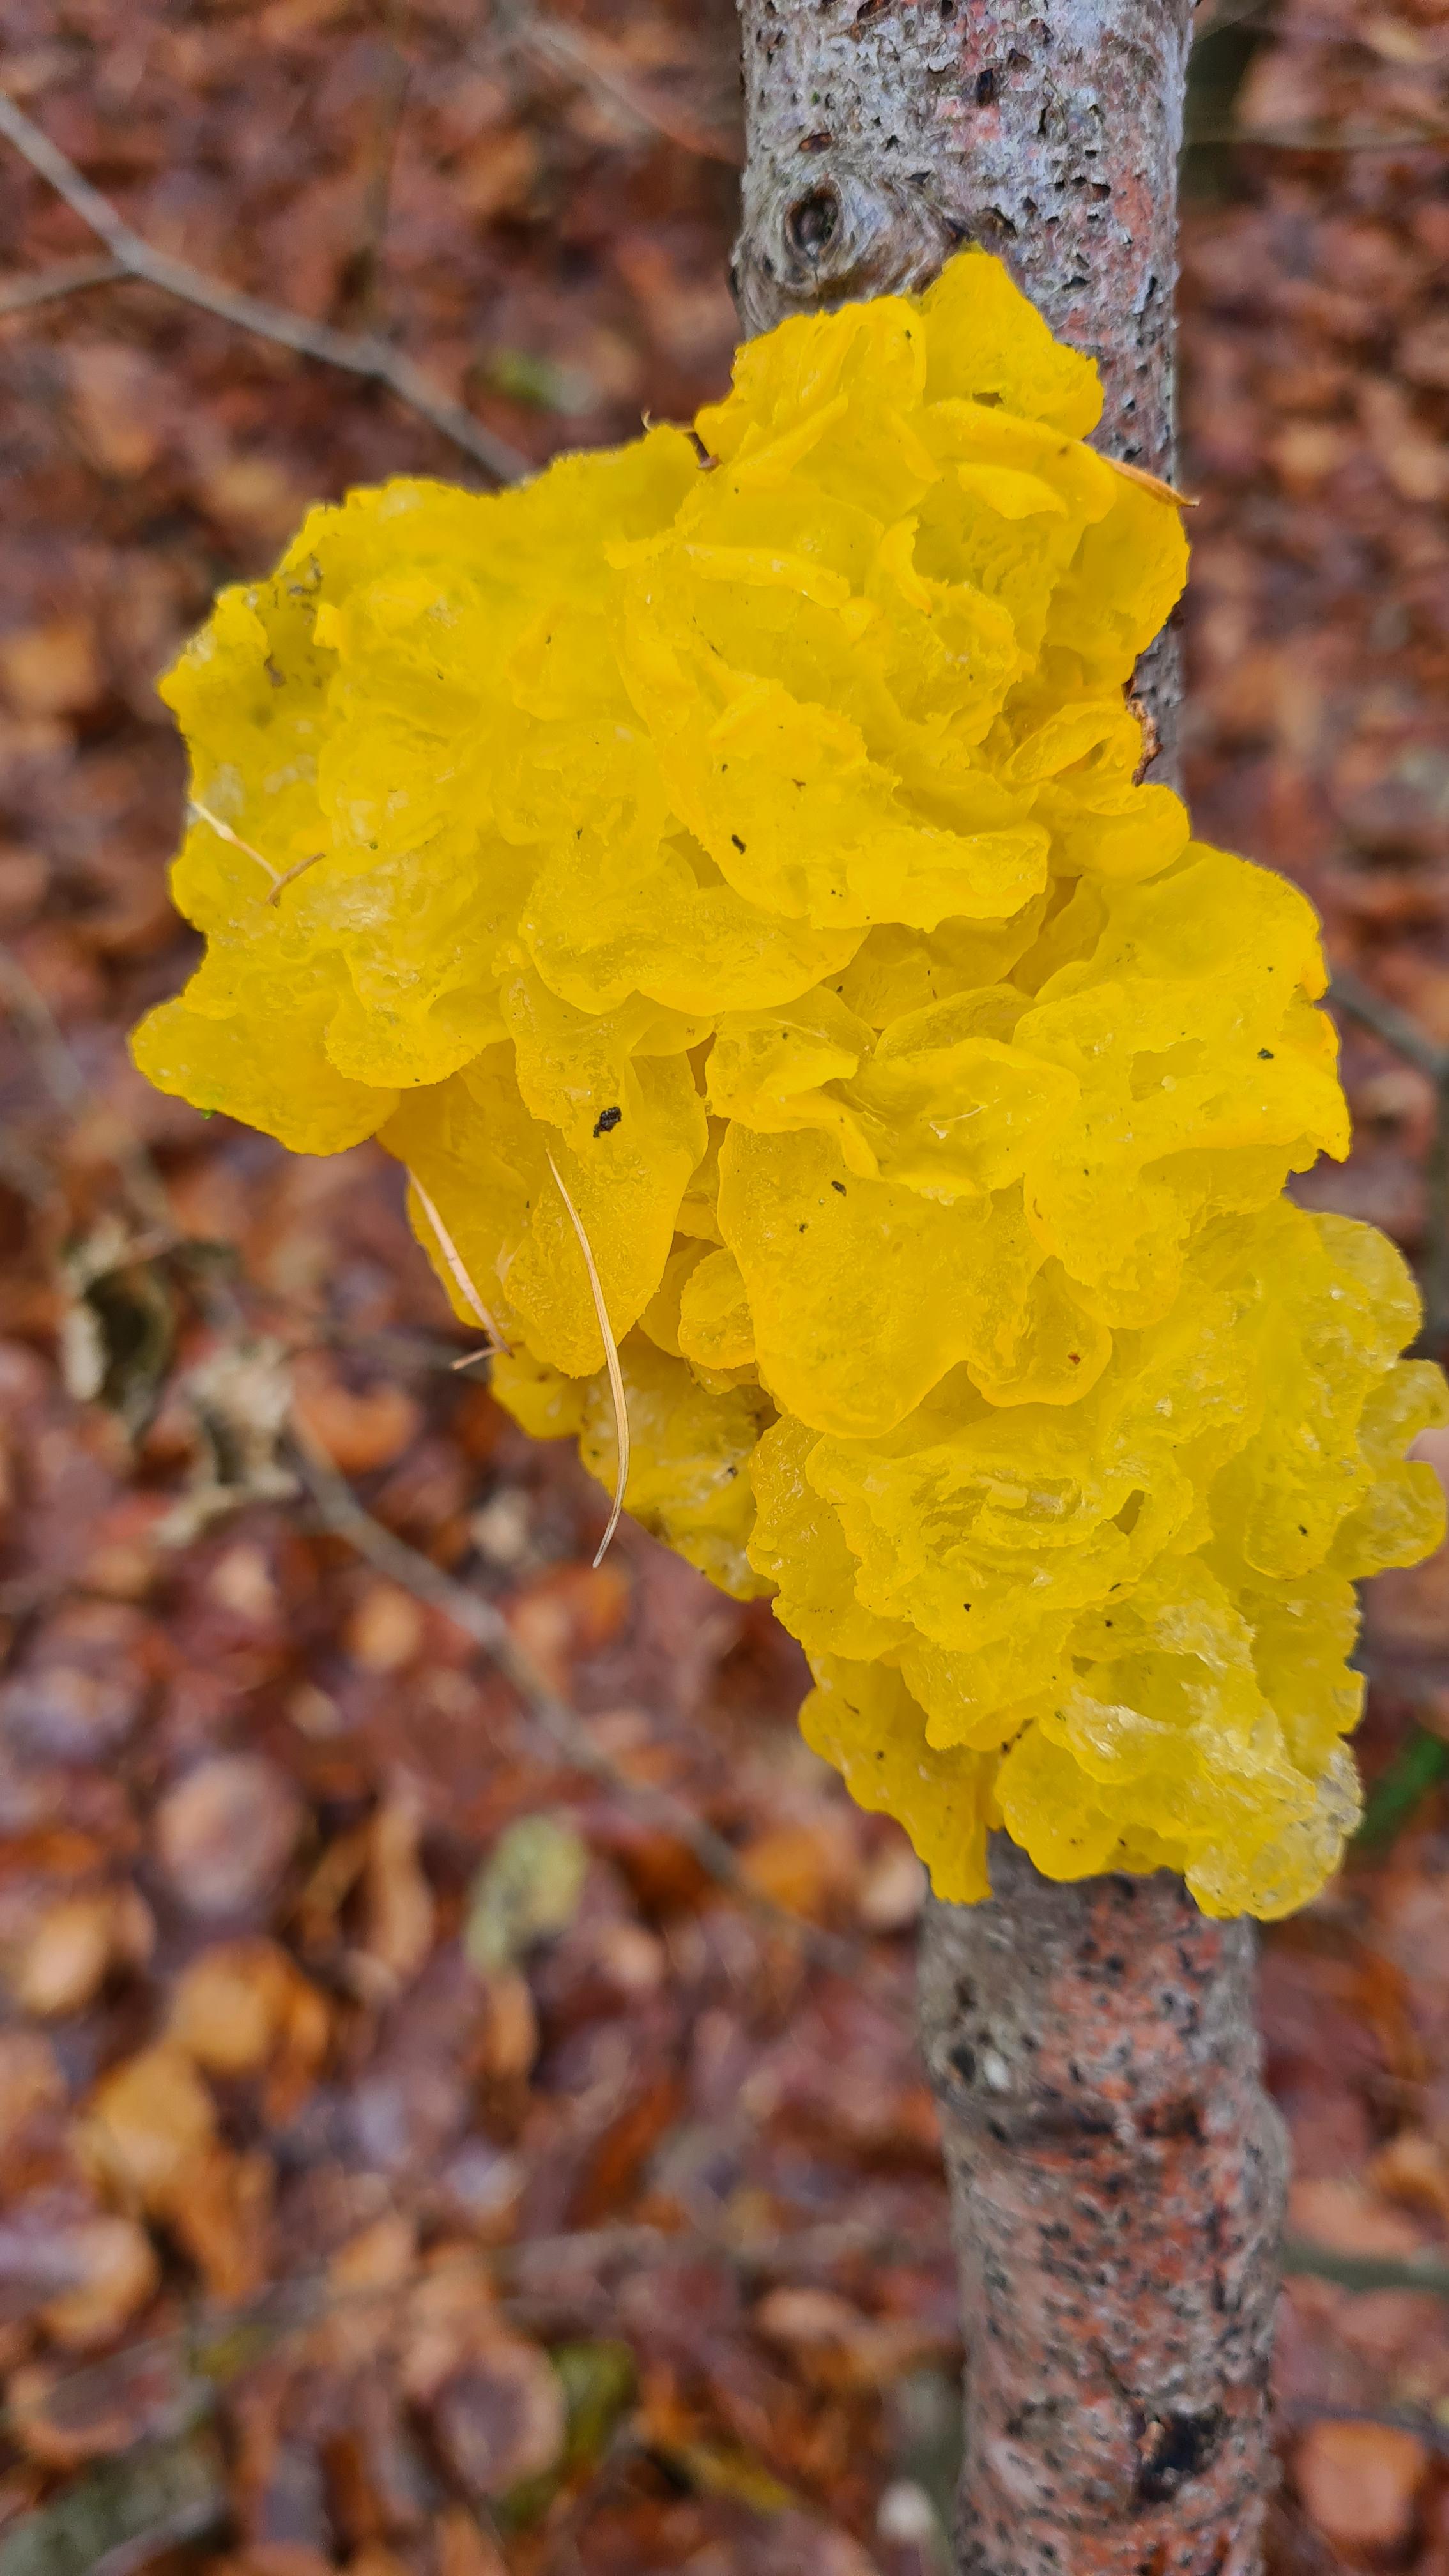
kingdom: Fungi
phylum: Basidiomycota
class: Tremellomycetes
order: Tremellales
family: Tremellaceae
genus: Tremella
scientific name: Tremella mesenterica
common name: gul bævresvamp
